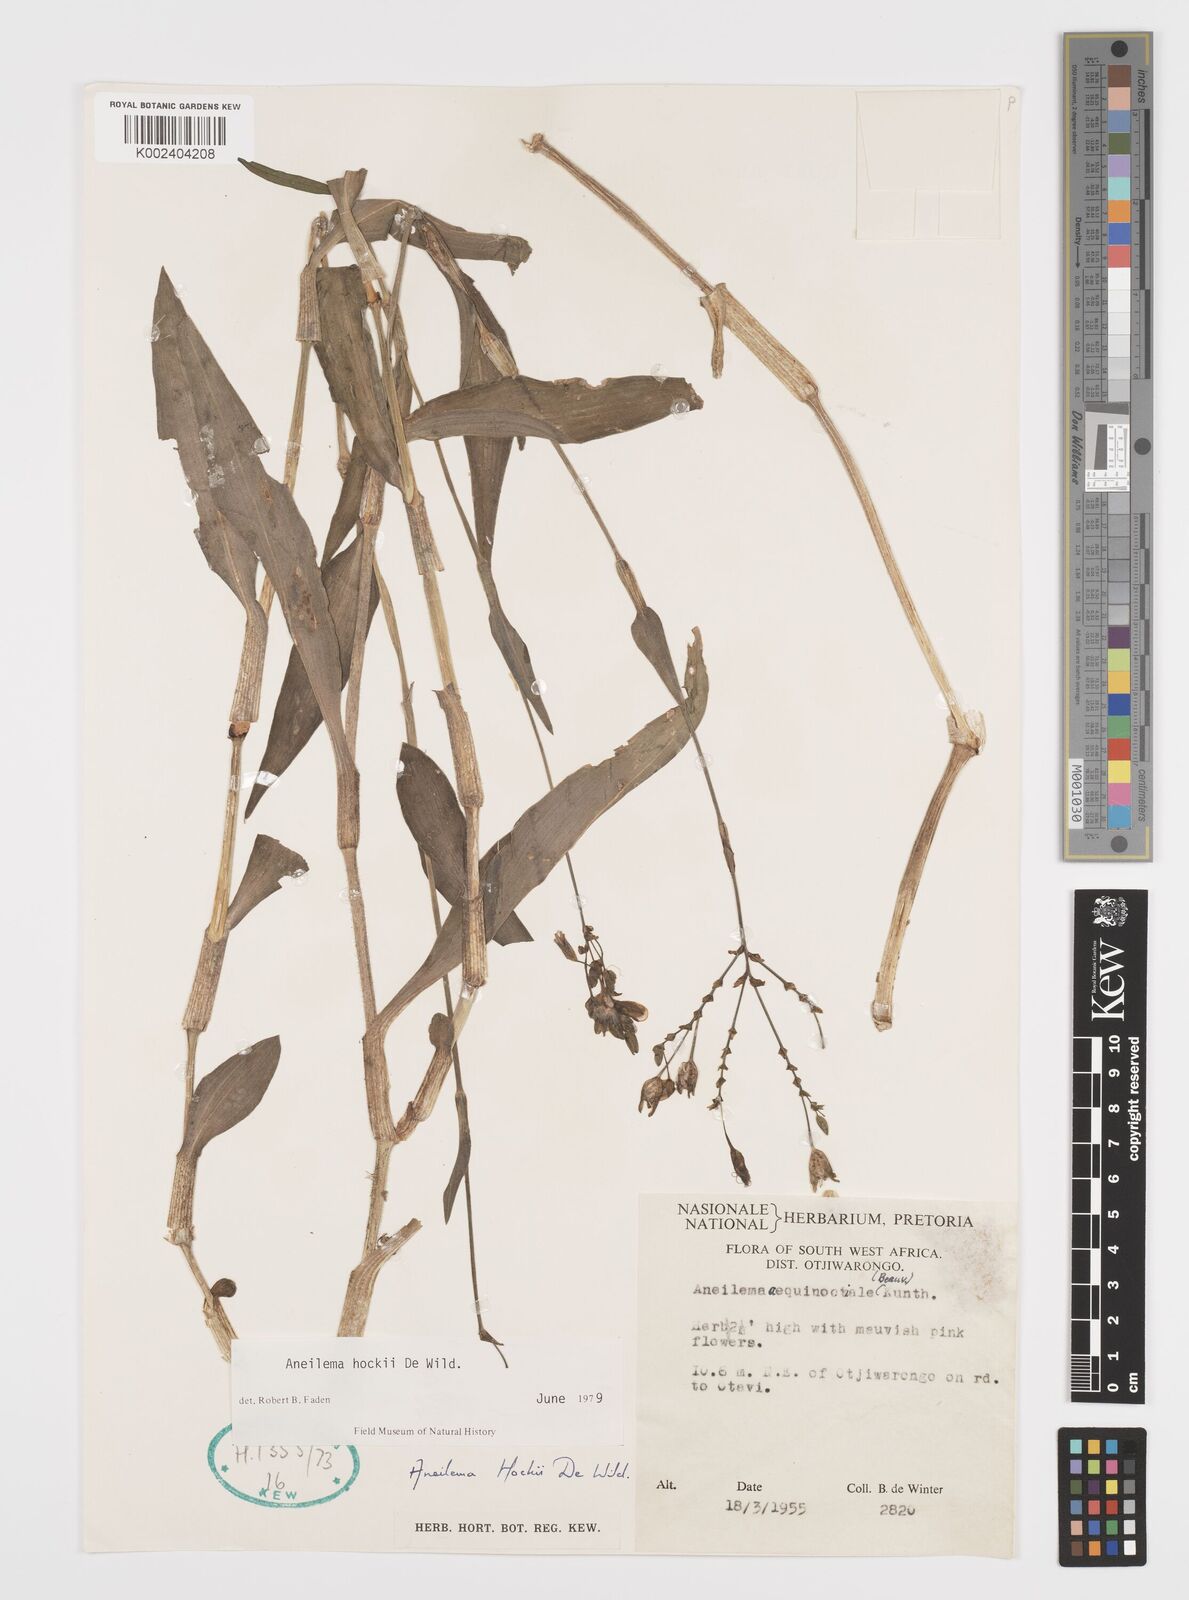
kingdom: Plantae
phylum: Tracheophyta
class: Liliopsida
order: Commelinales
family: Commelinaceae
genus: Aneilema
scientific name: Aneilema hockii
